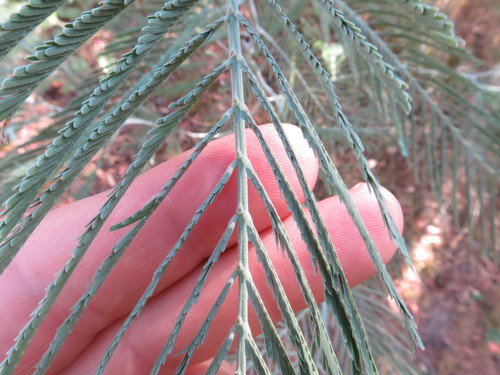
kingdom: Plantae
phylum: Tracheophyta
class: Magnoliopsida
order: Fabales
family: Fabaceae
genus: Acacia
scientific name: Acacia dealbata
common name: Silver wattle
